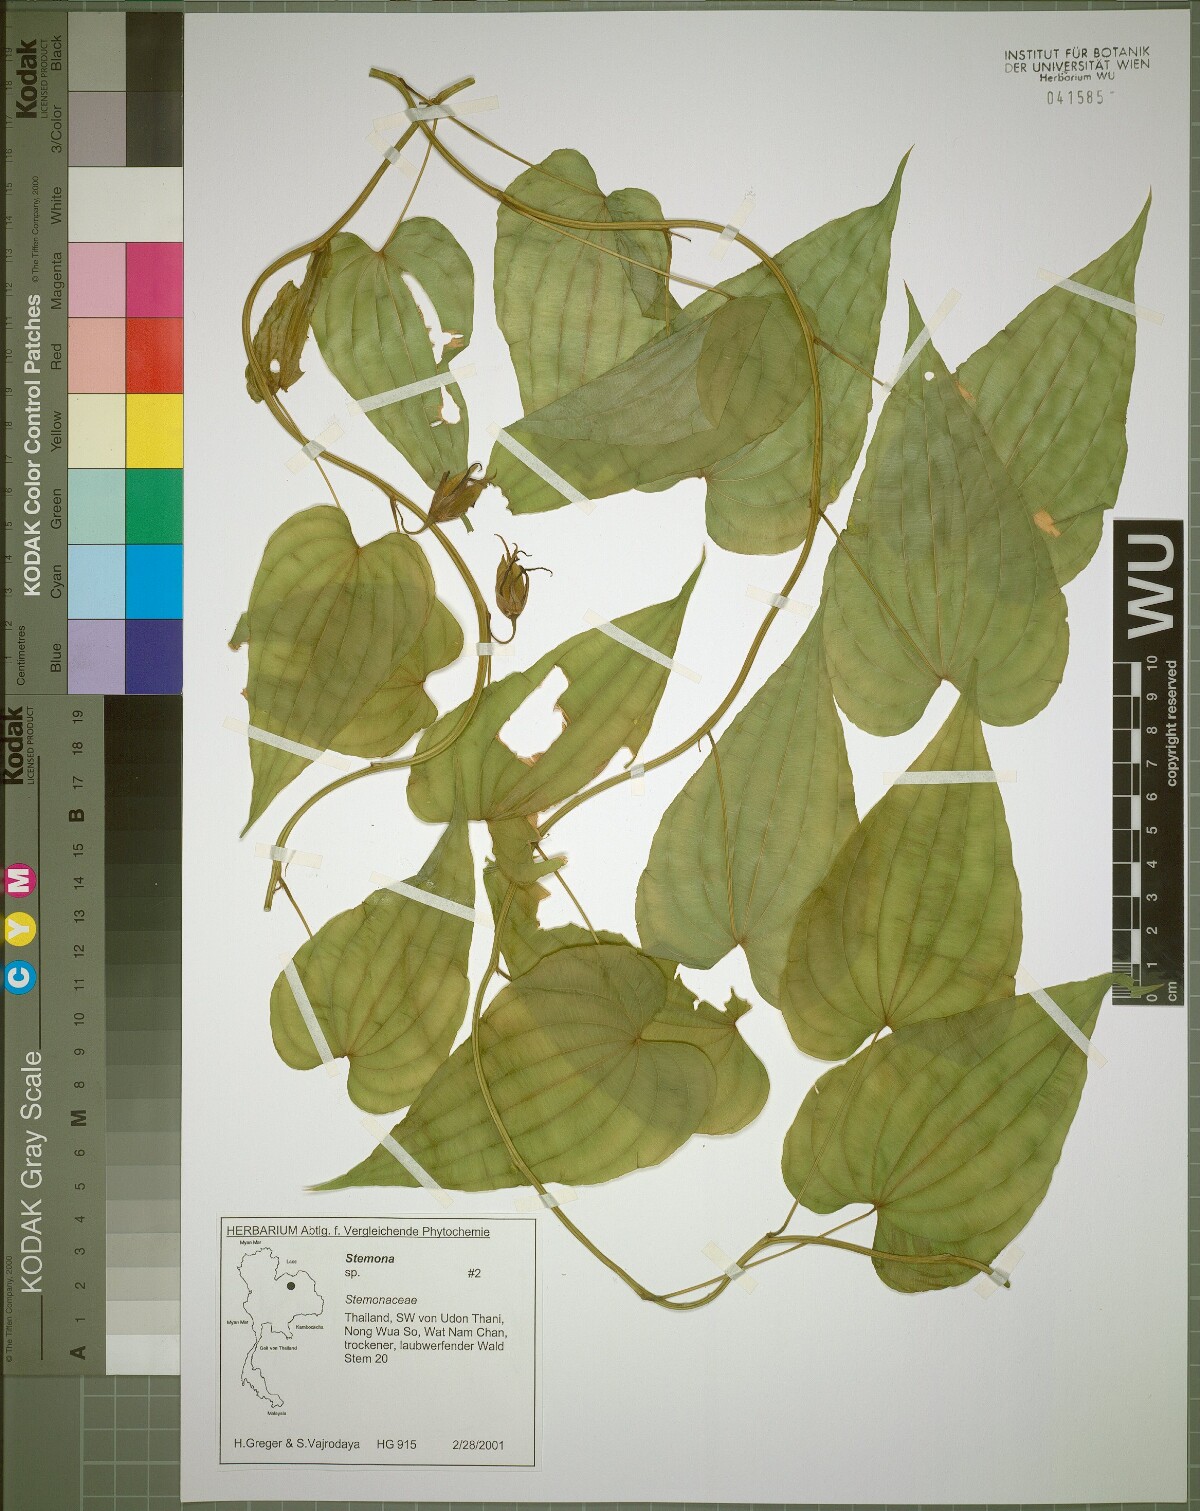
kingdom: Plantae
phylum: Tracheophyta
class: Liliopsida
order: Pandanales
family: Stemonaceae
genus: Stemona
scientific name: Stemona aphylla
